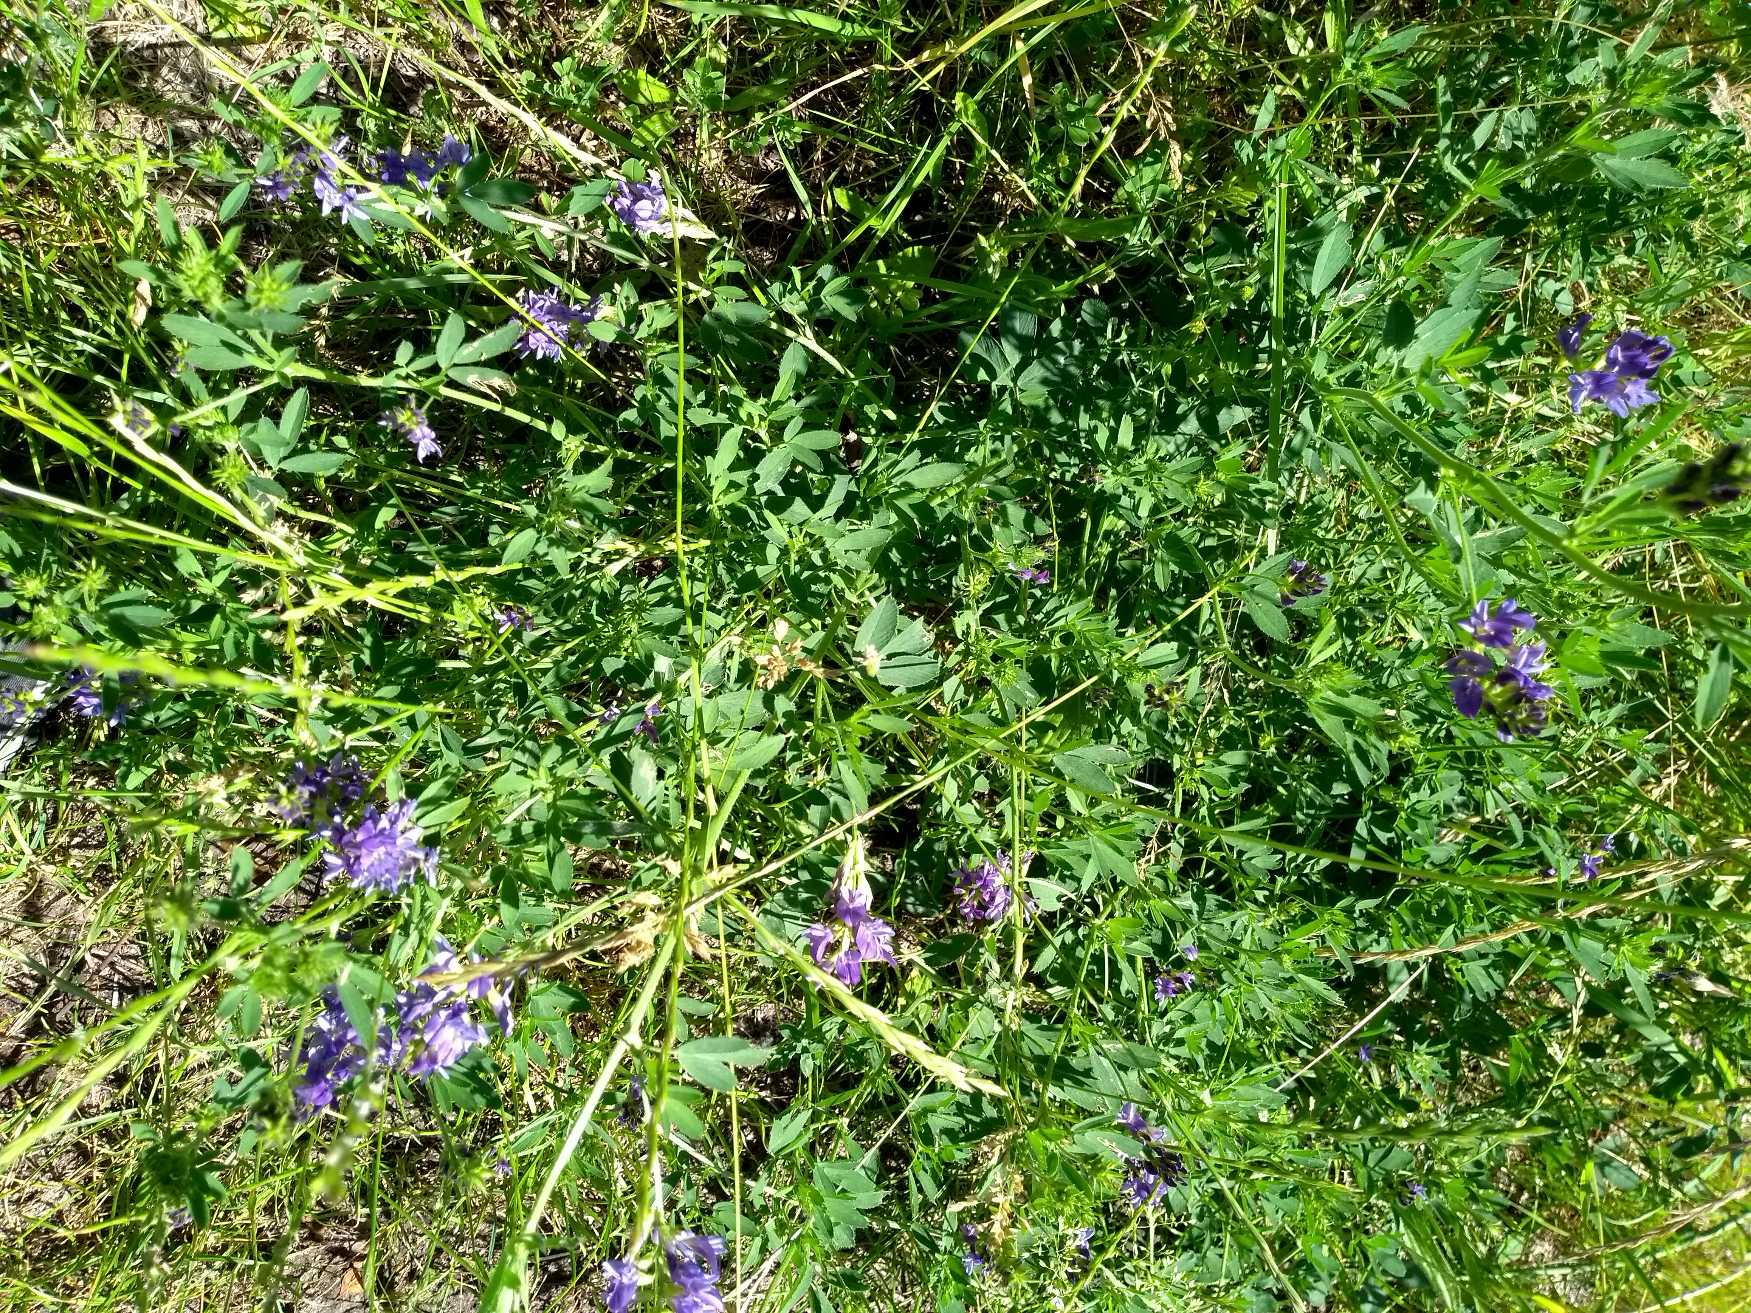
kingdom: Plantae
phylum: Tracheophyta
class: Magnoliopsida
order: Fabales
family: Fabaceae
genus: Medicago
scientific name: Medicago sativa
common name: Lucerne
